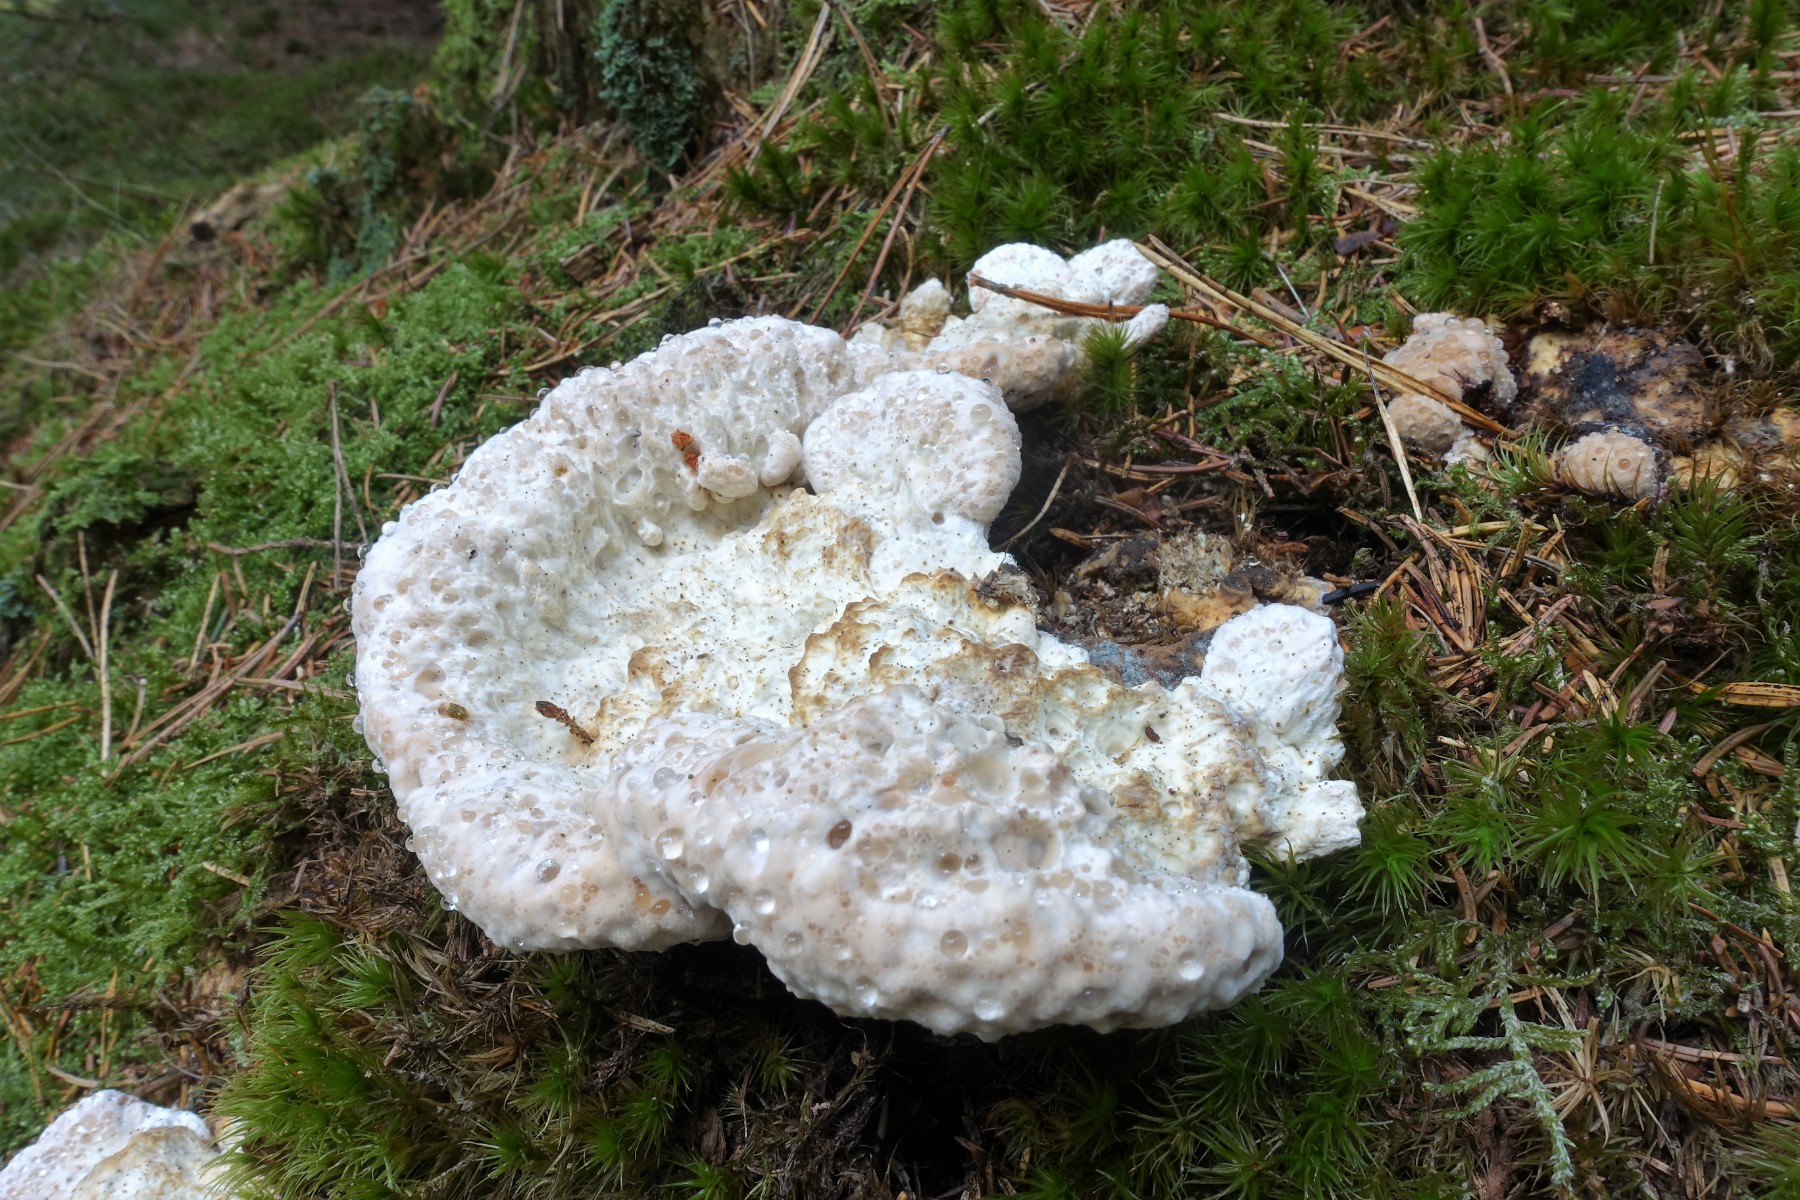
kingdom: Fungi
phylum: Basidiomycota
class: Agaricomycetes
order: Polyporales
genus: Calcipostia
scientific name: Calcipostia guttulata
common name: dråbe-kødporesvamp
